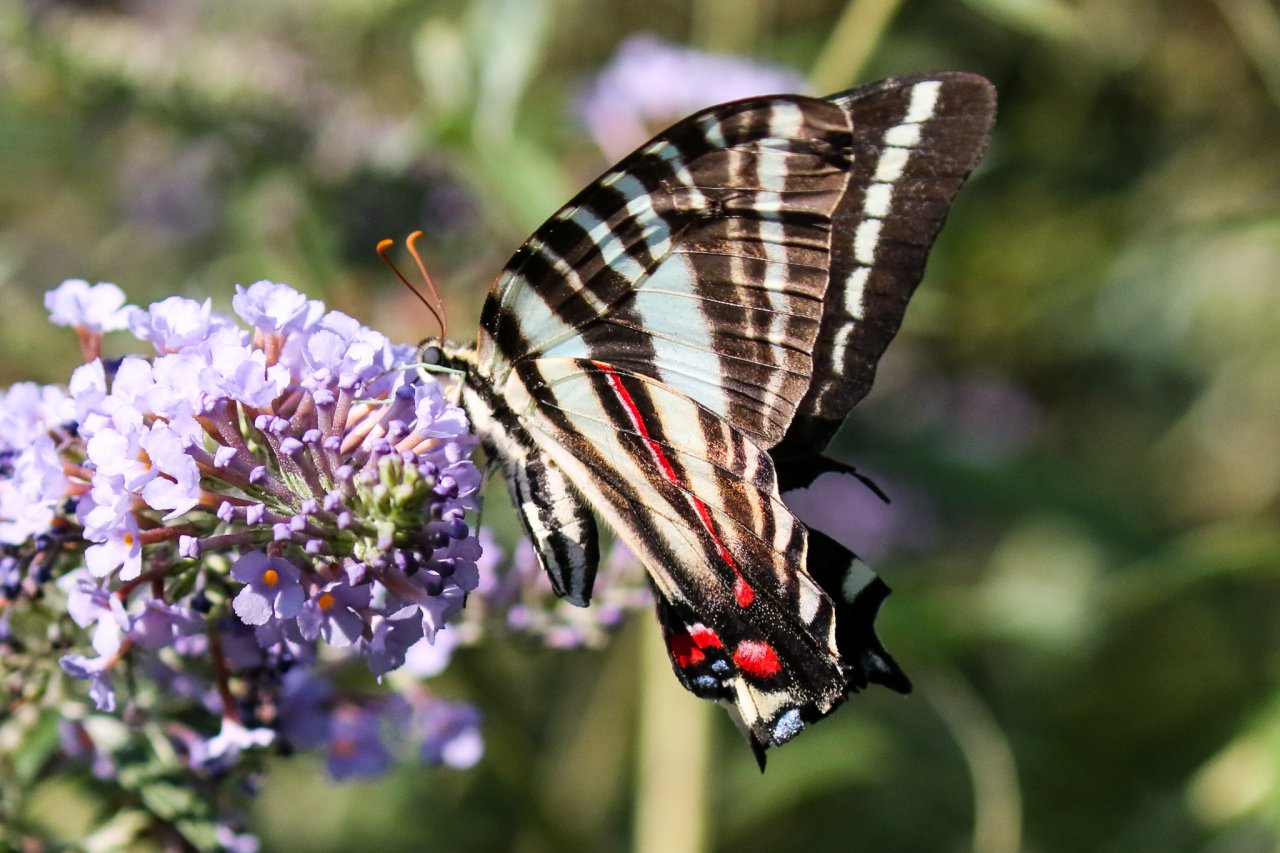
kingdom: Animalia
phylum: Arthropoda
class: Insecta
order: Lepidoptera
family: Papilionidae
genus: Protographium
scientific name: Protographium marcellus
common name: Zebra Swallowtail
